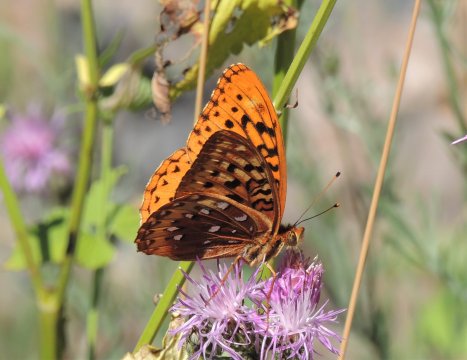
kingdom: Animalia
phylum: Arthropoda
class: Insecta
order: Lepidoptera
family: Nymphalidae
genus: Speyeria
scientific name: Speyeria cybele
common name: Great Spangled Fritillary
